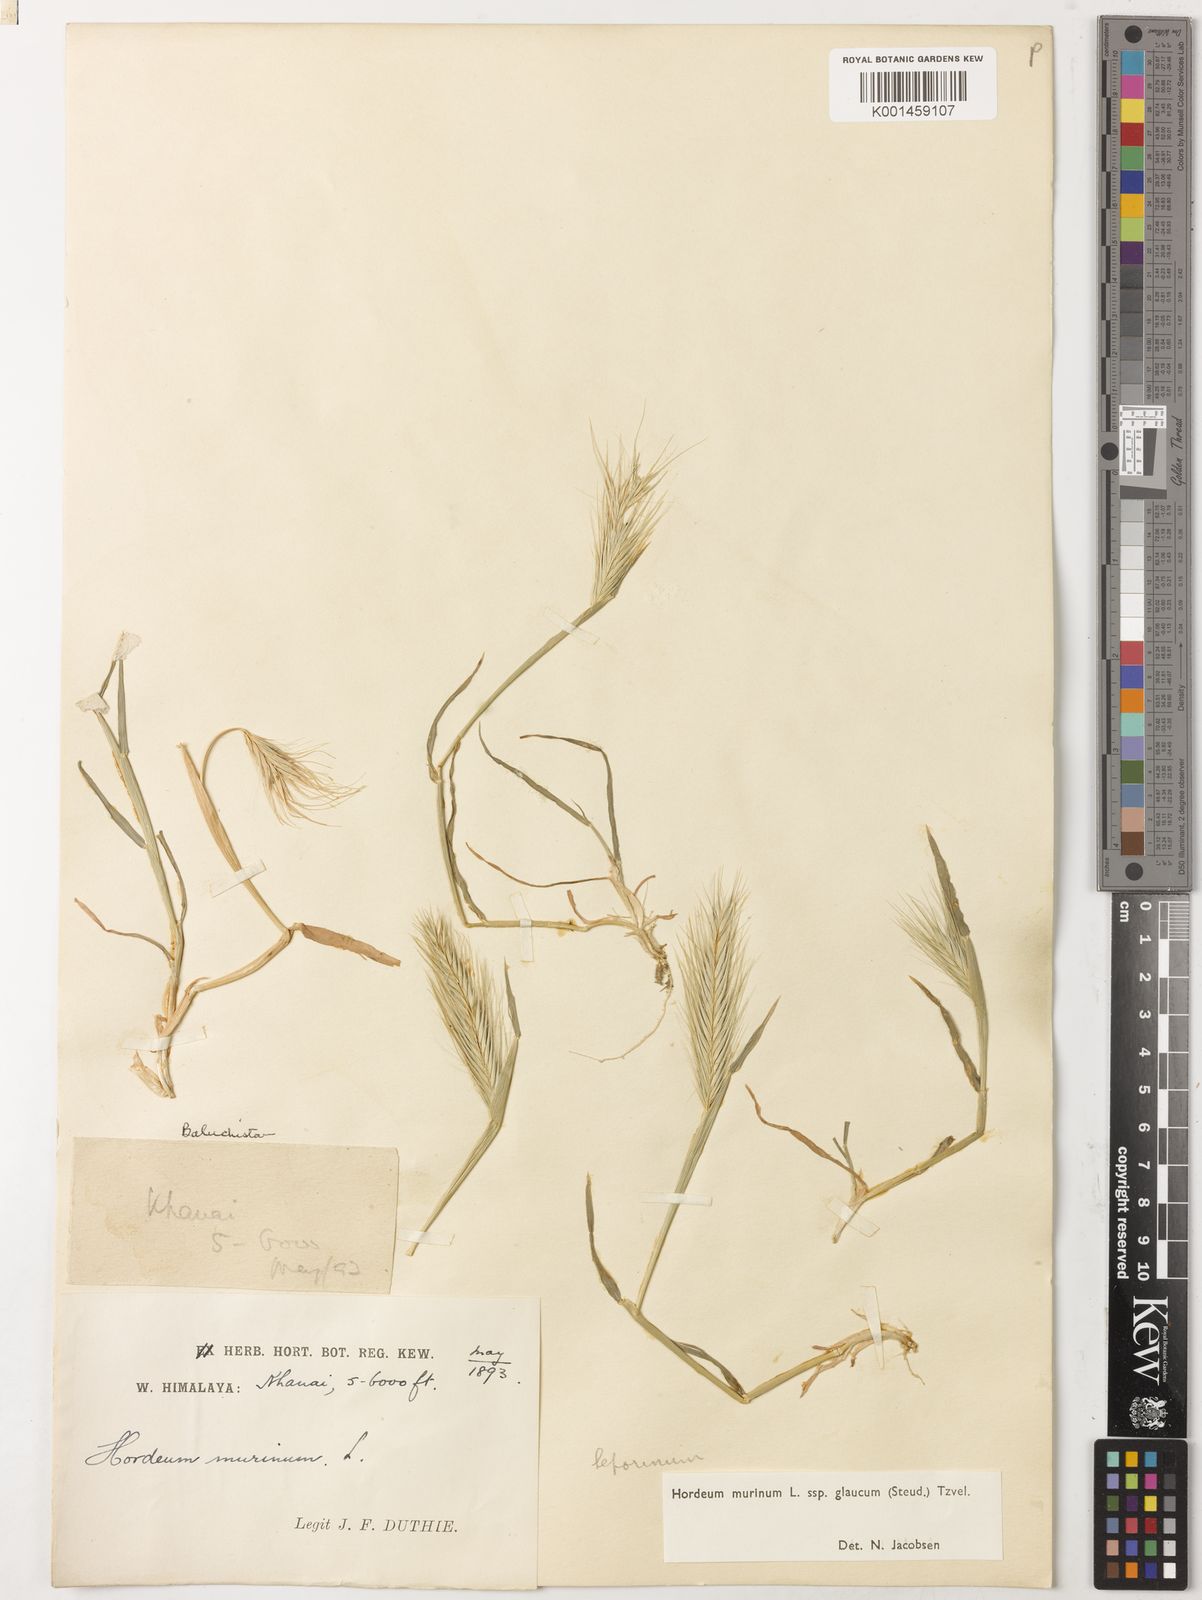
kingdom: Plantae
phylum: Tracheophyta
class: Liliopsida
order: Poales
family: Poaceae
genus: Hordeum
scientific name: Hordeum murinum
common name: Wall barley
